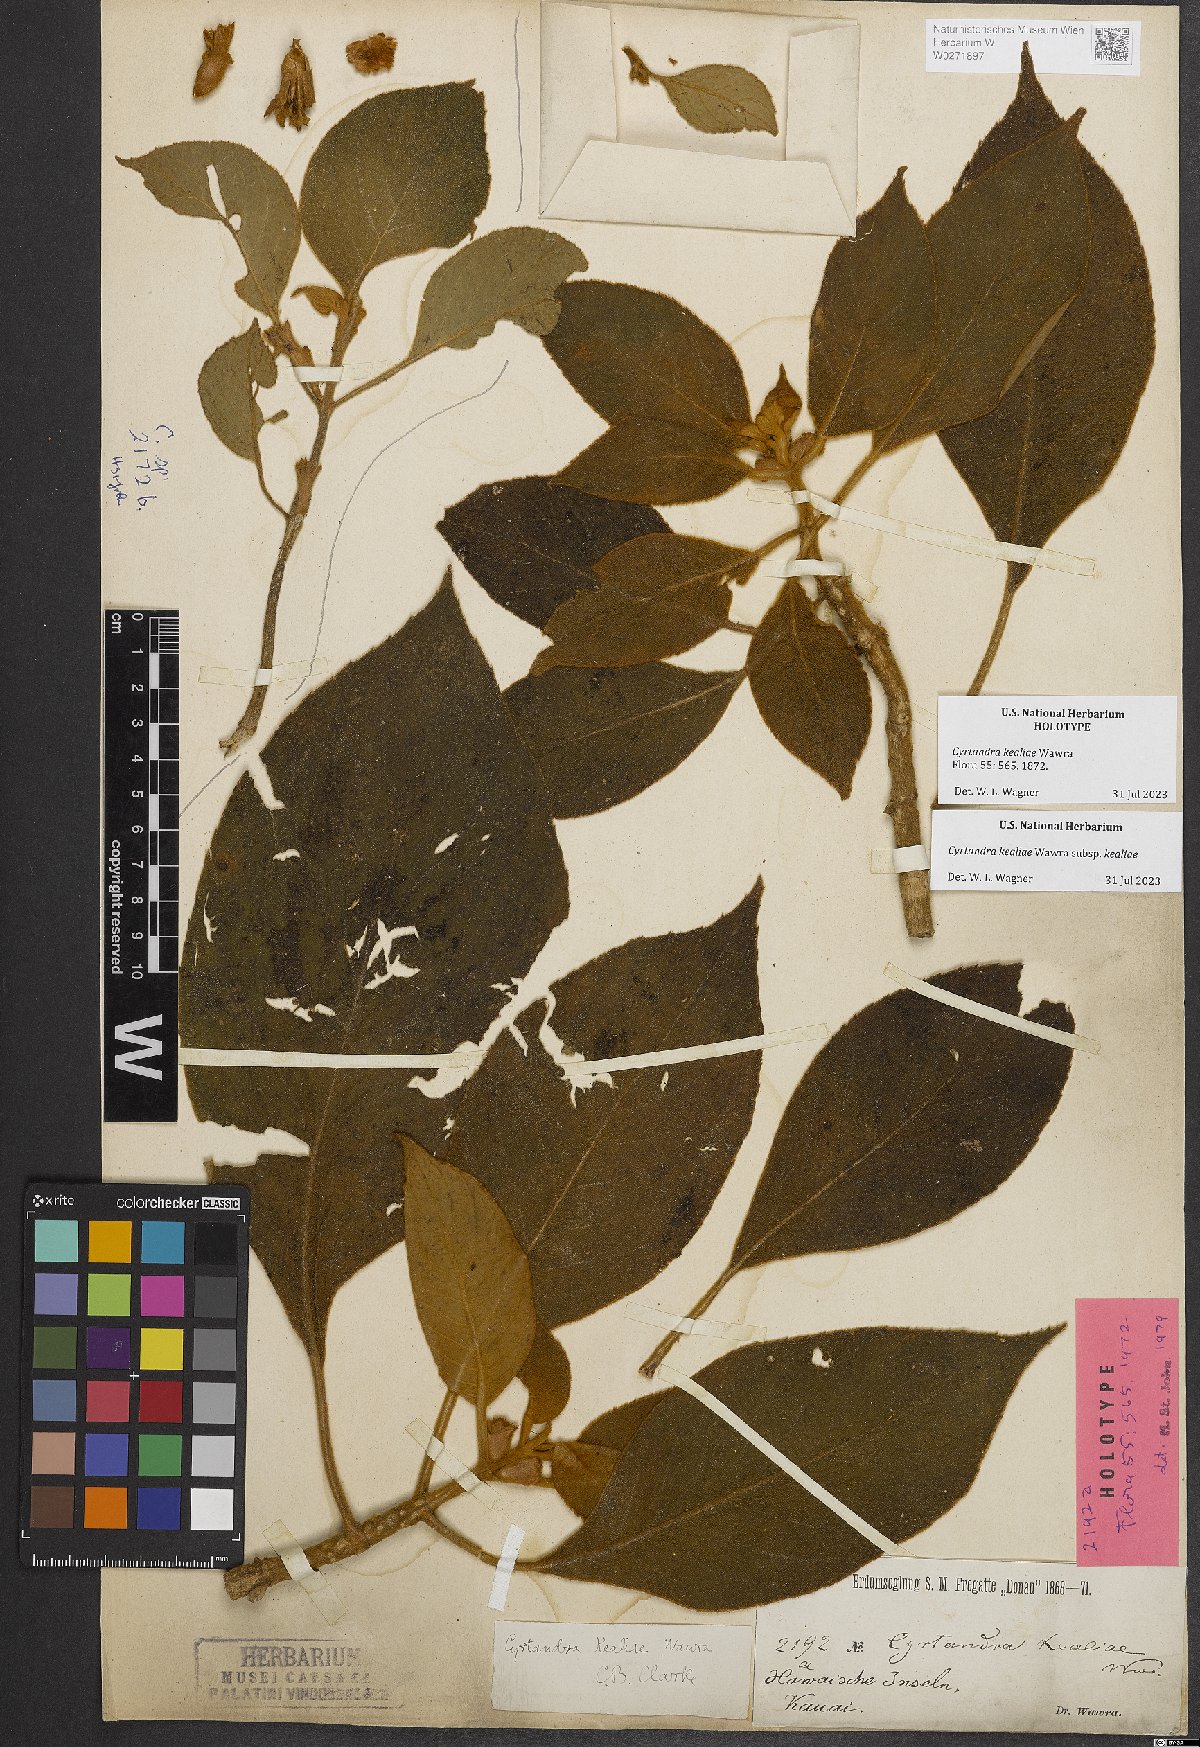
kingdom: Plantae
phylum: Tracheophyta
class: Magnoliopsida
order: Lamiales
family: Gesneriaceae
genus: Cyrtandra
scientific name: Cyrtandra kealiae
